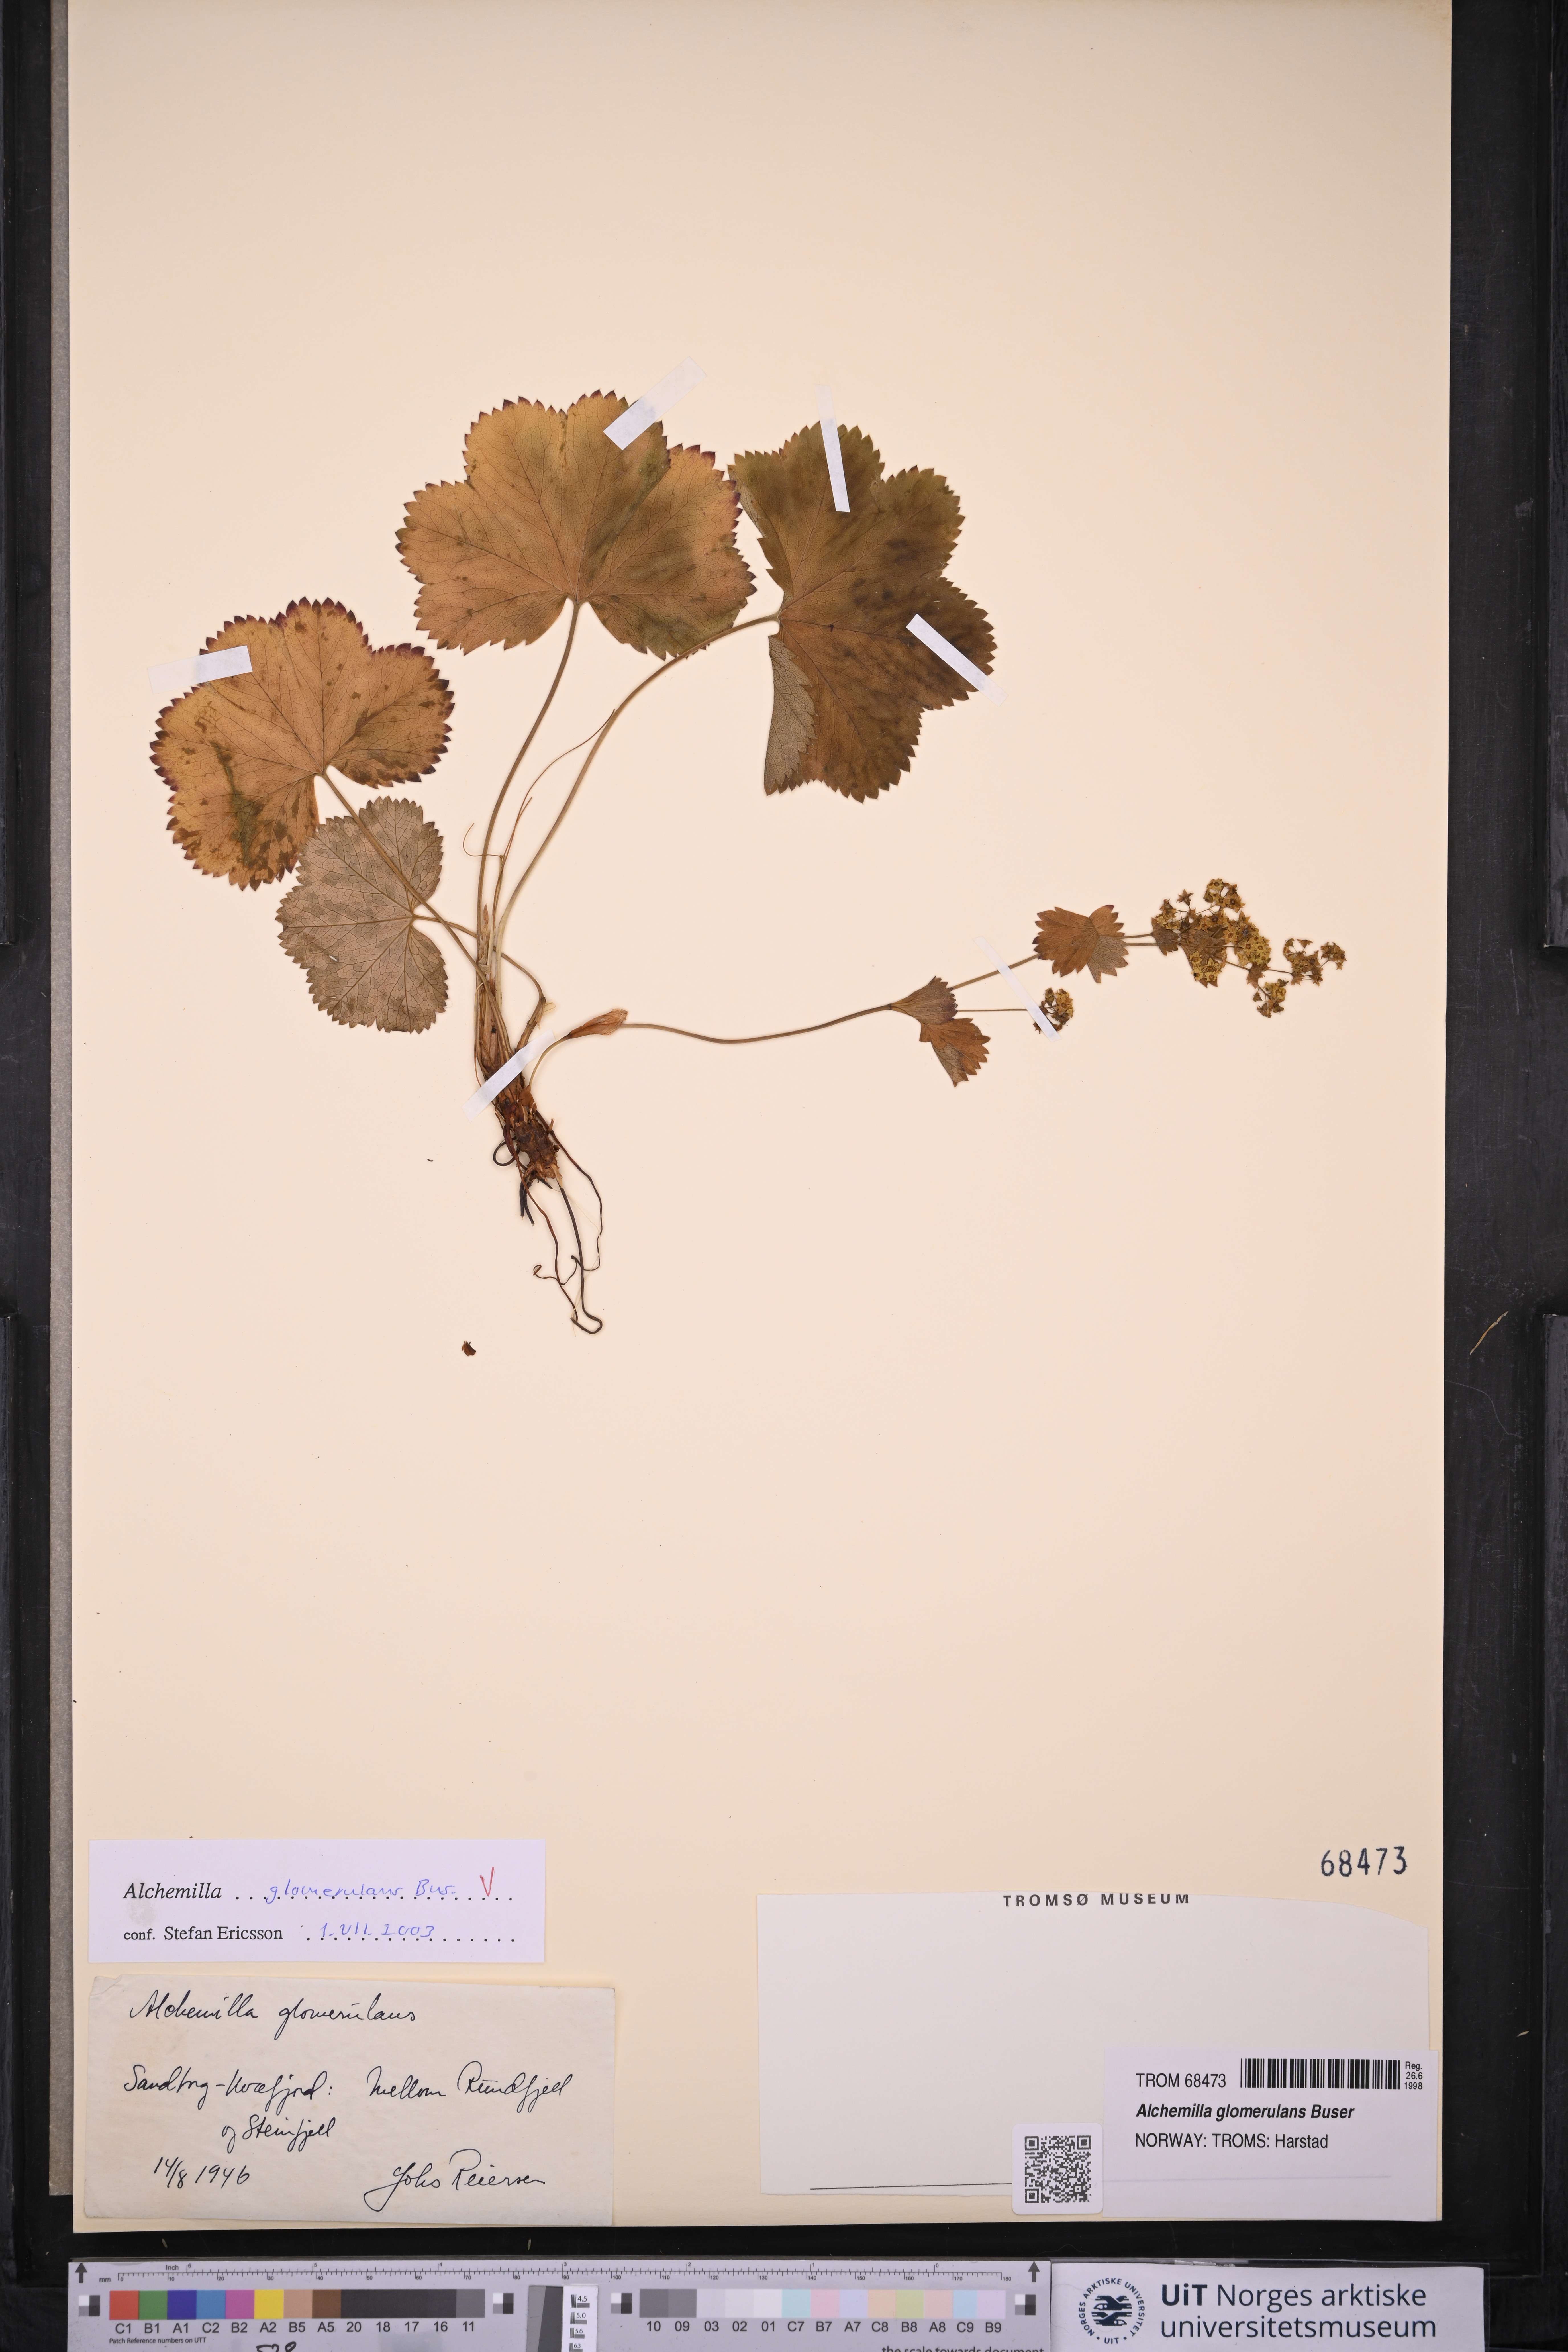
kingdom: Plantae
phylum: Tracheophyta
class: Magnoliopsida
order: Rosales
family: Rosaceae
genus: Alchemilla
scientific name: Alchemilla glomerulans
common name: Clustered lady's mantle
